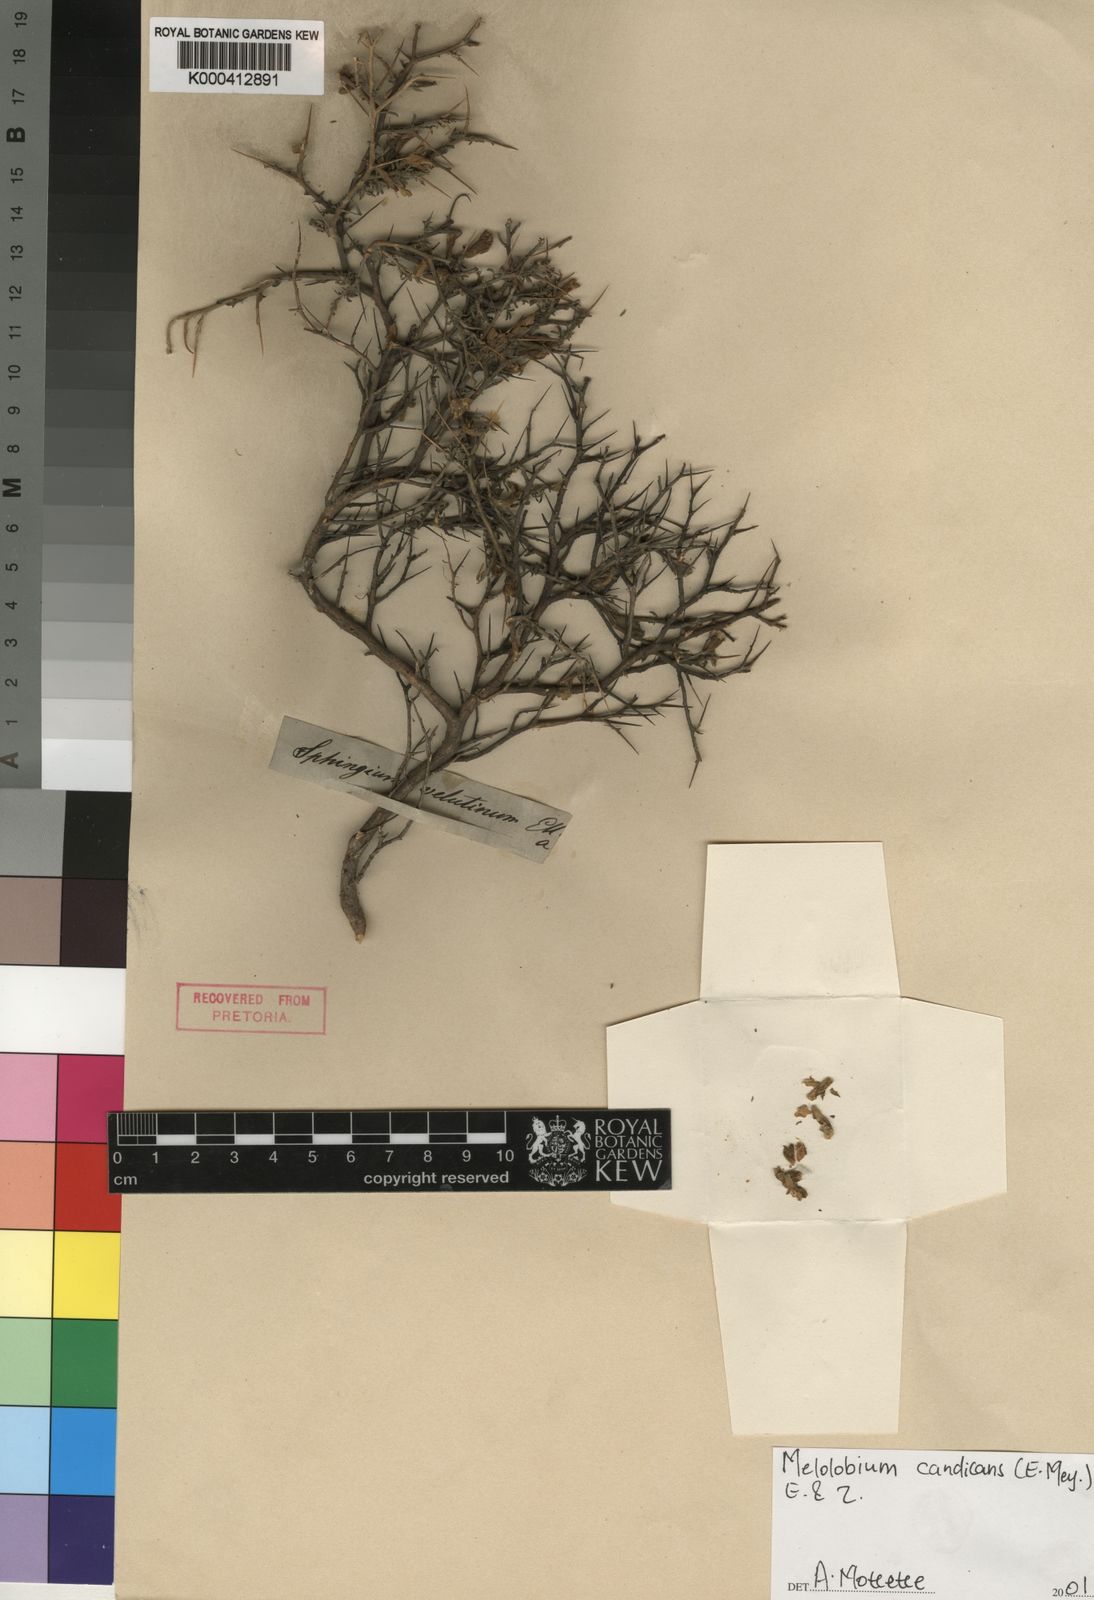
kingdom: Plantae
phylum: Tracheophyta
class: Magnoliopsida
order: Fabales
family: Fabaceae
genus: Melolobium
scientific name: Melolobium candicans
